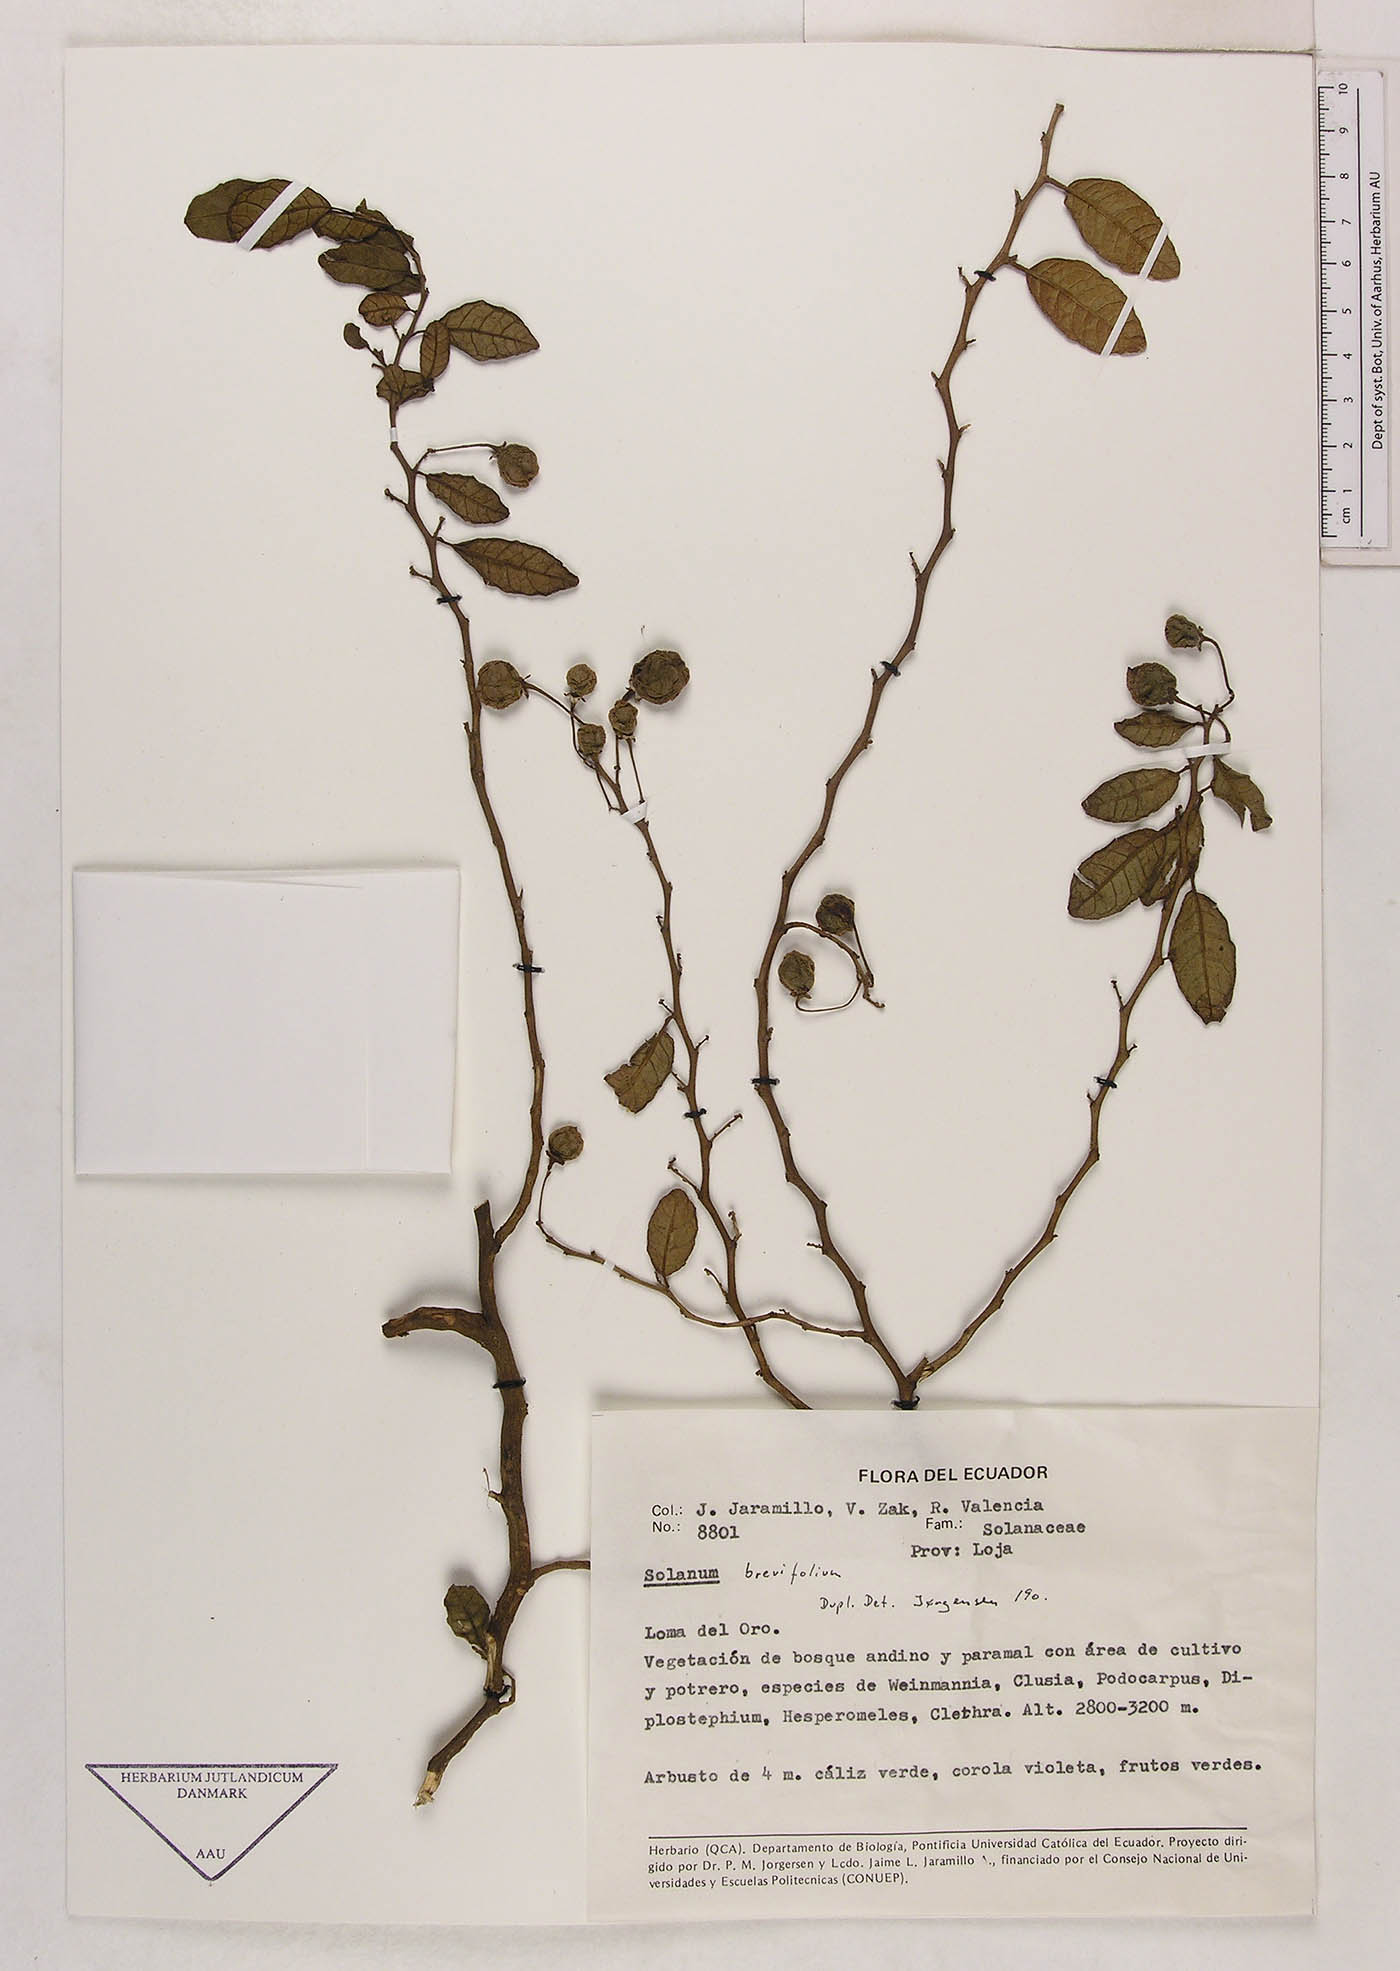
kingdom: Plantae
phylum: Tracheophyta
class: Magnoliopsida
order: Solanales
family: Solanaceae
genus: Solanum
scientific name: Solanum brevifolium
